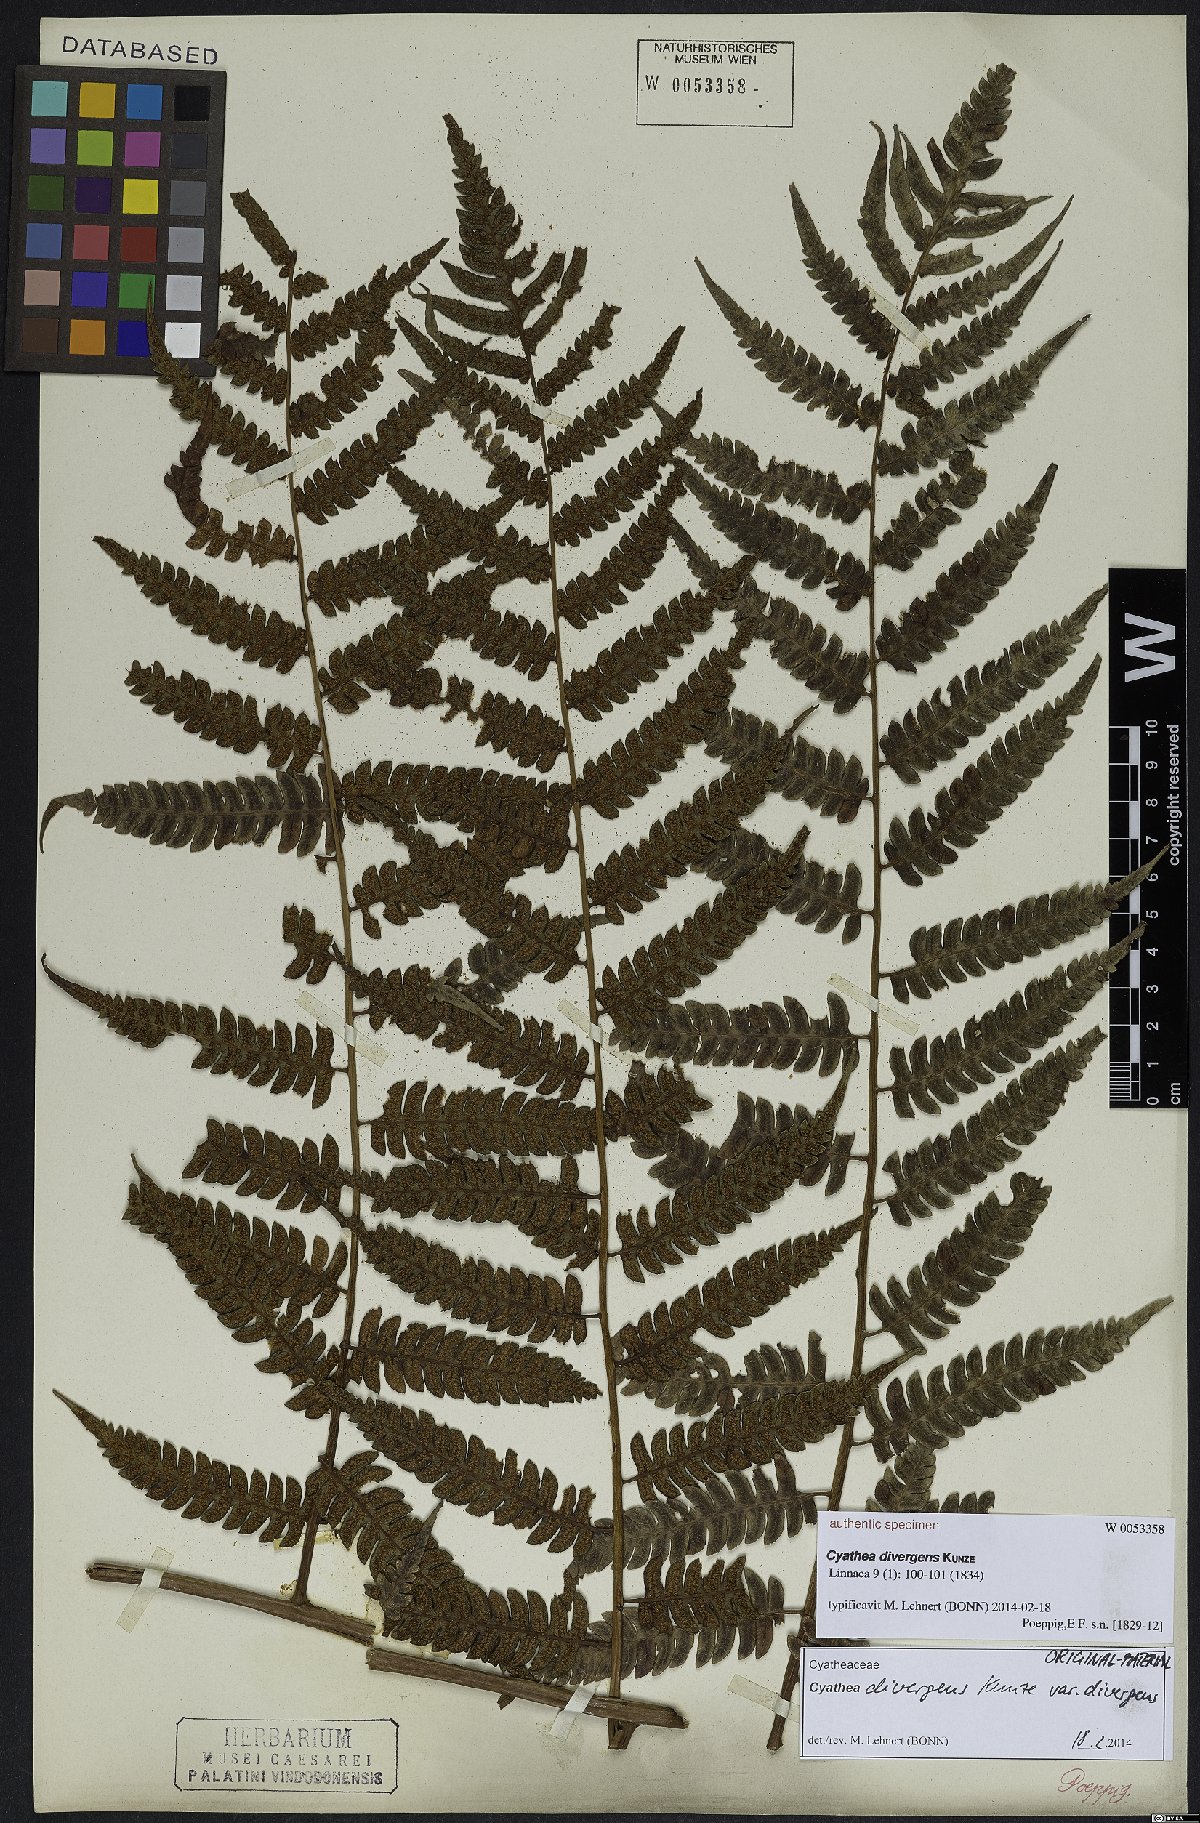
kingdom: Plantae
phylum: Tracheophyta
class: Polypodiopsida
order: Cyatheales
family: Cyatheaceae
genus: Cyathea
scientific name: Cyathea divergens
